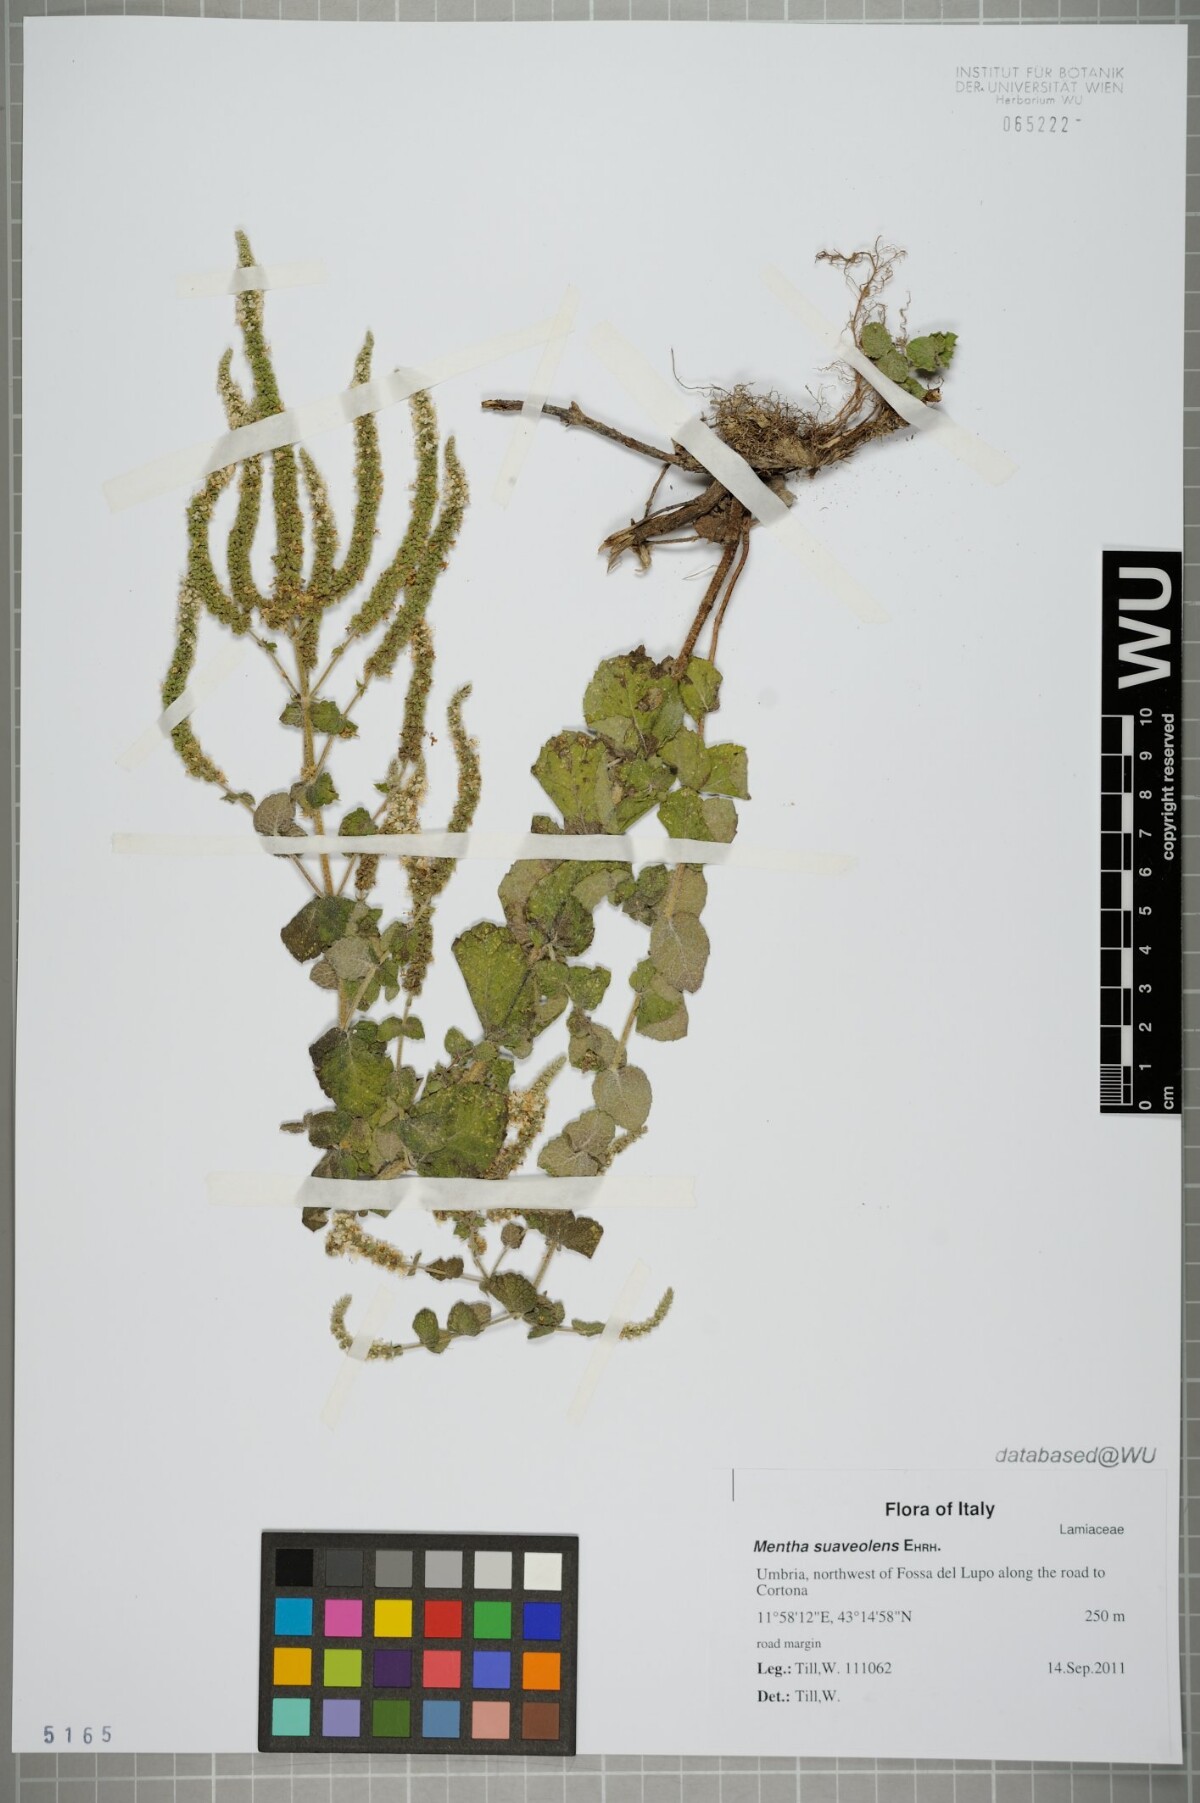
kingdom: Plantae
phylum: Tracheophyta
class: Magnoliopsida
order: Lamiales
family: Lamiaceae
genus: Mentha
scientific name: Mentha suaveolens
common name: Apple mint
